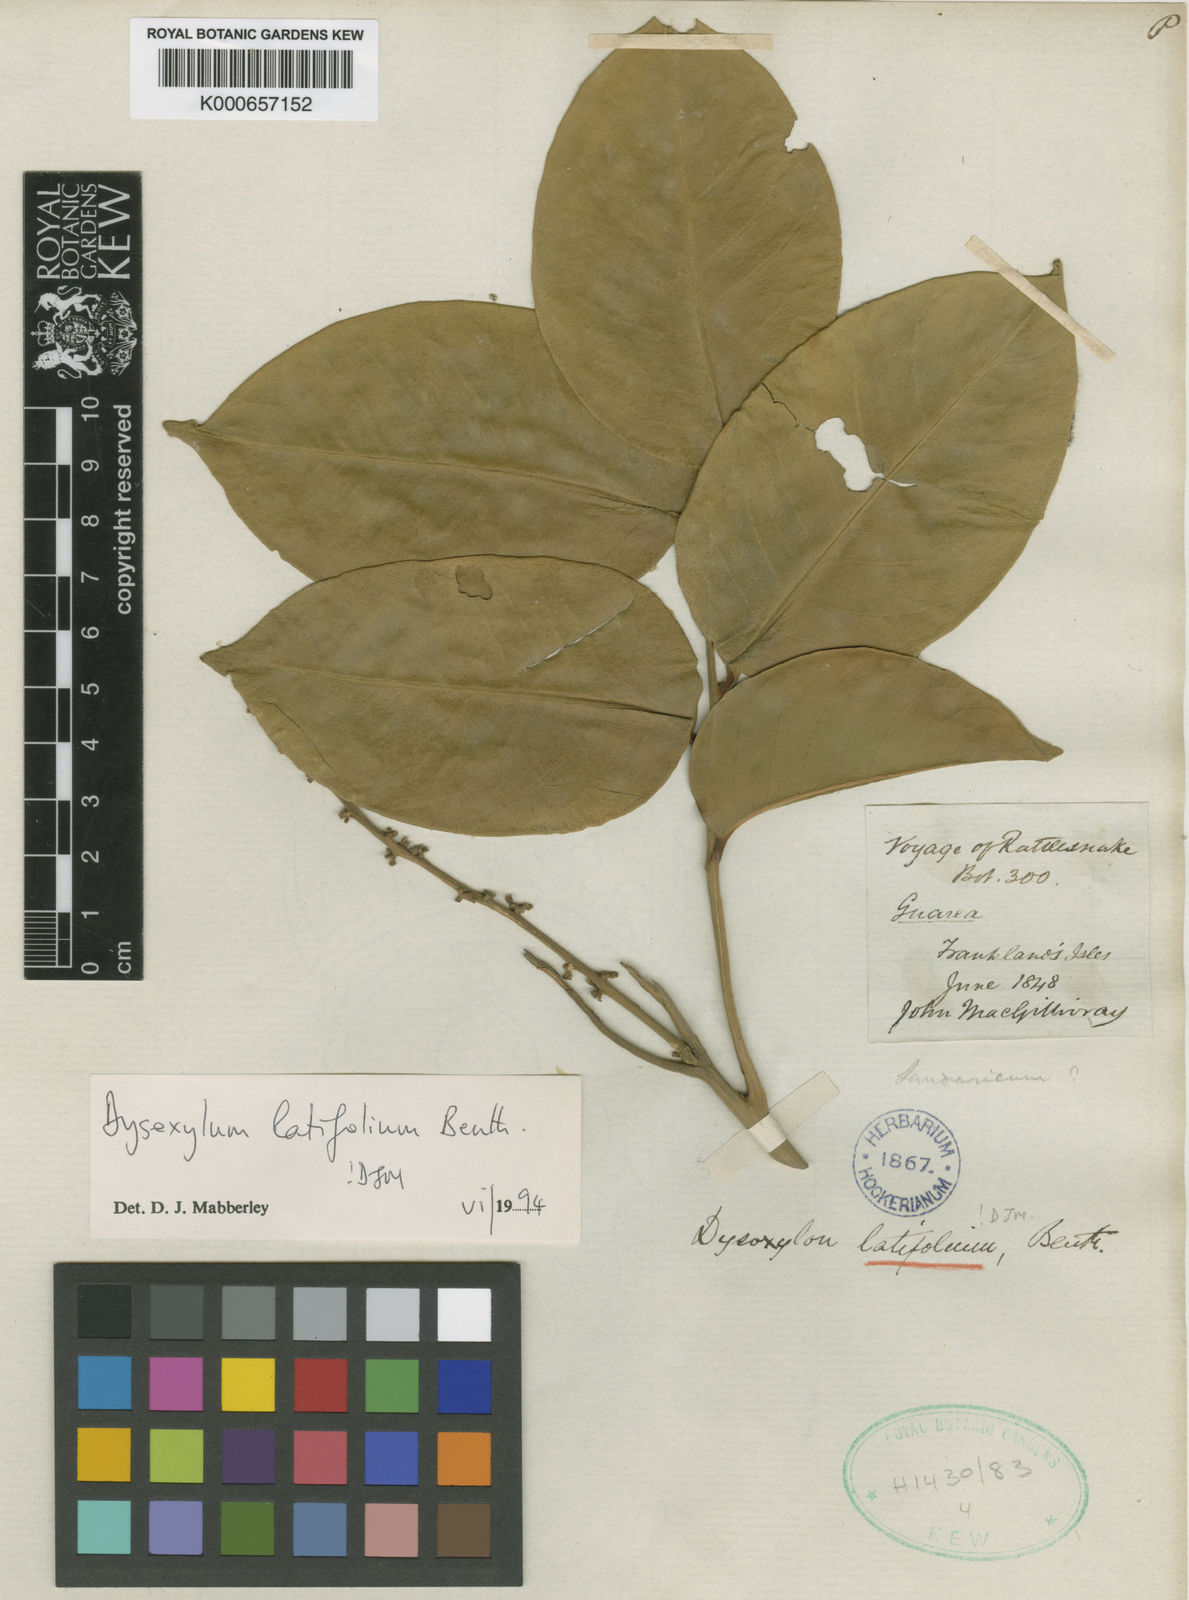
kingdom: Plantae
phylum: Tracheophyta
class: Magnoliopsida
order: Sapindales
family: Meliaceae
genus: Dysoxylum
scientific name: Dysoxylum latifolium
